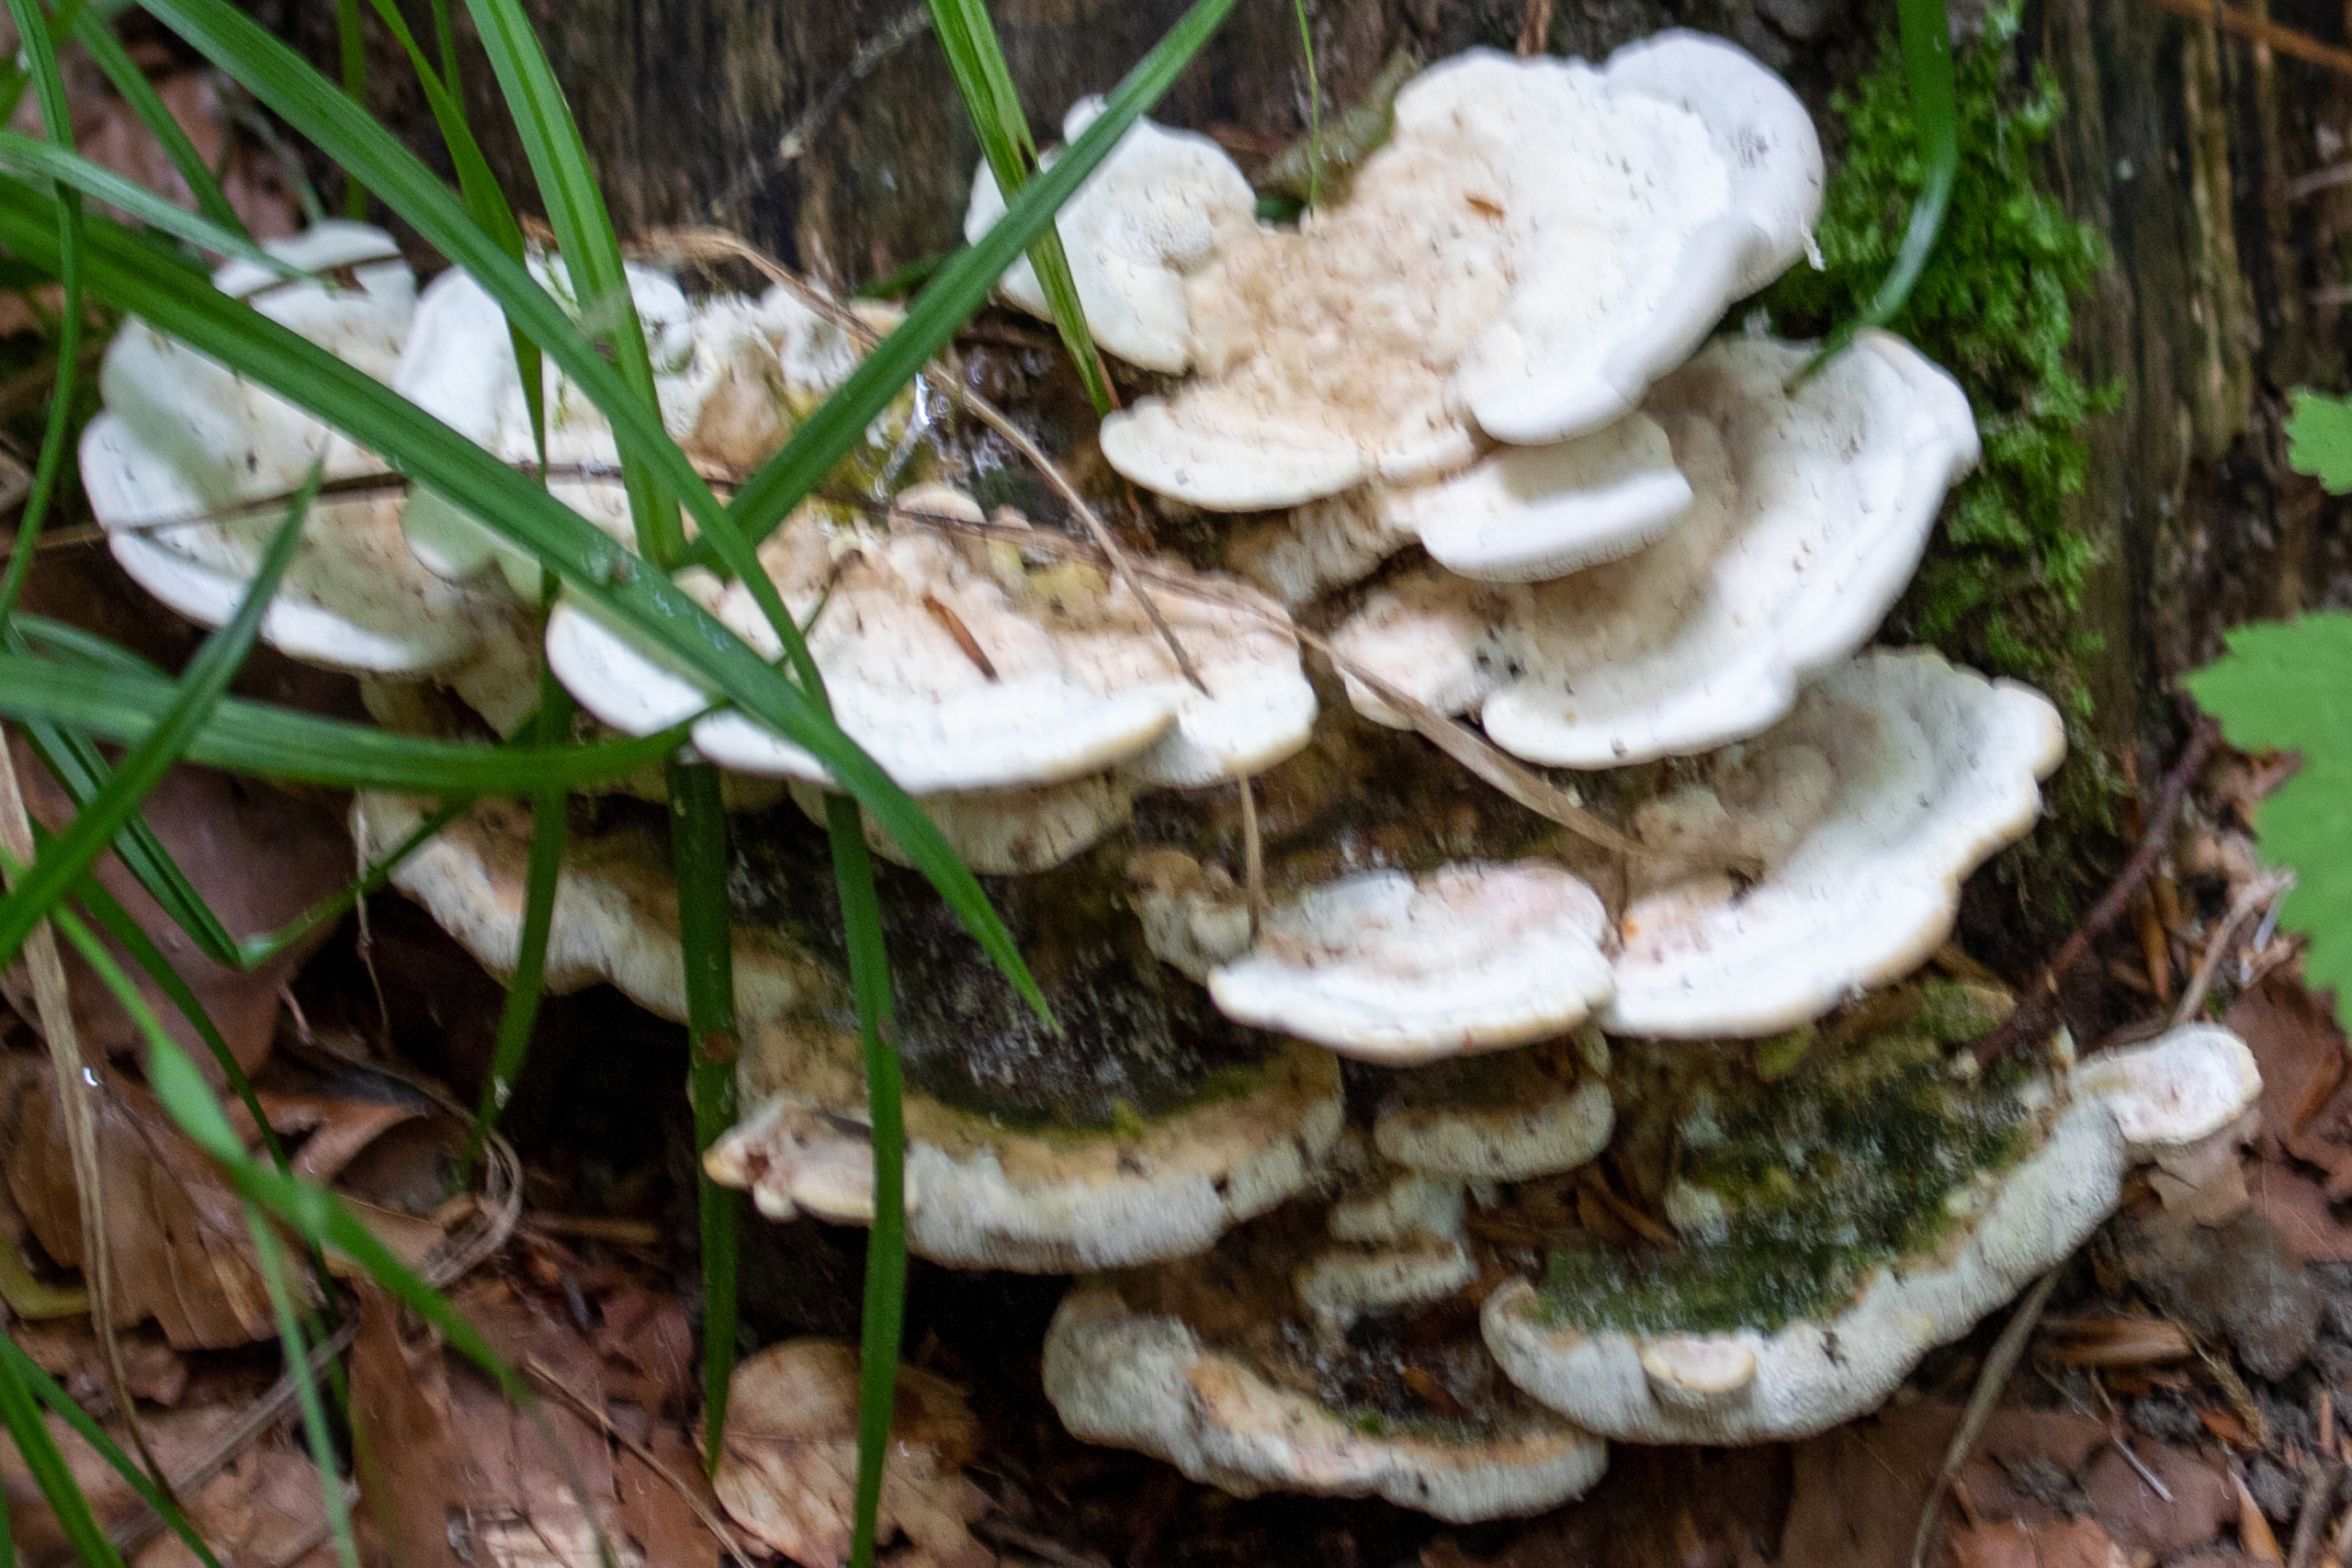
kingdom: Fungi
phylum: Basidiomycota
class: Agaricomycetes
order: Polyporales
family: Polyporaceae
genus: Trametes
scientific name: Trametes gibbosa
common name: Puklet læderporesvamp
